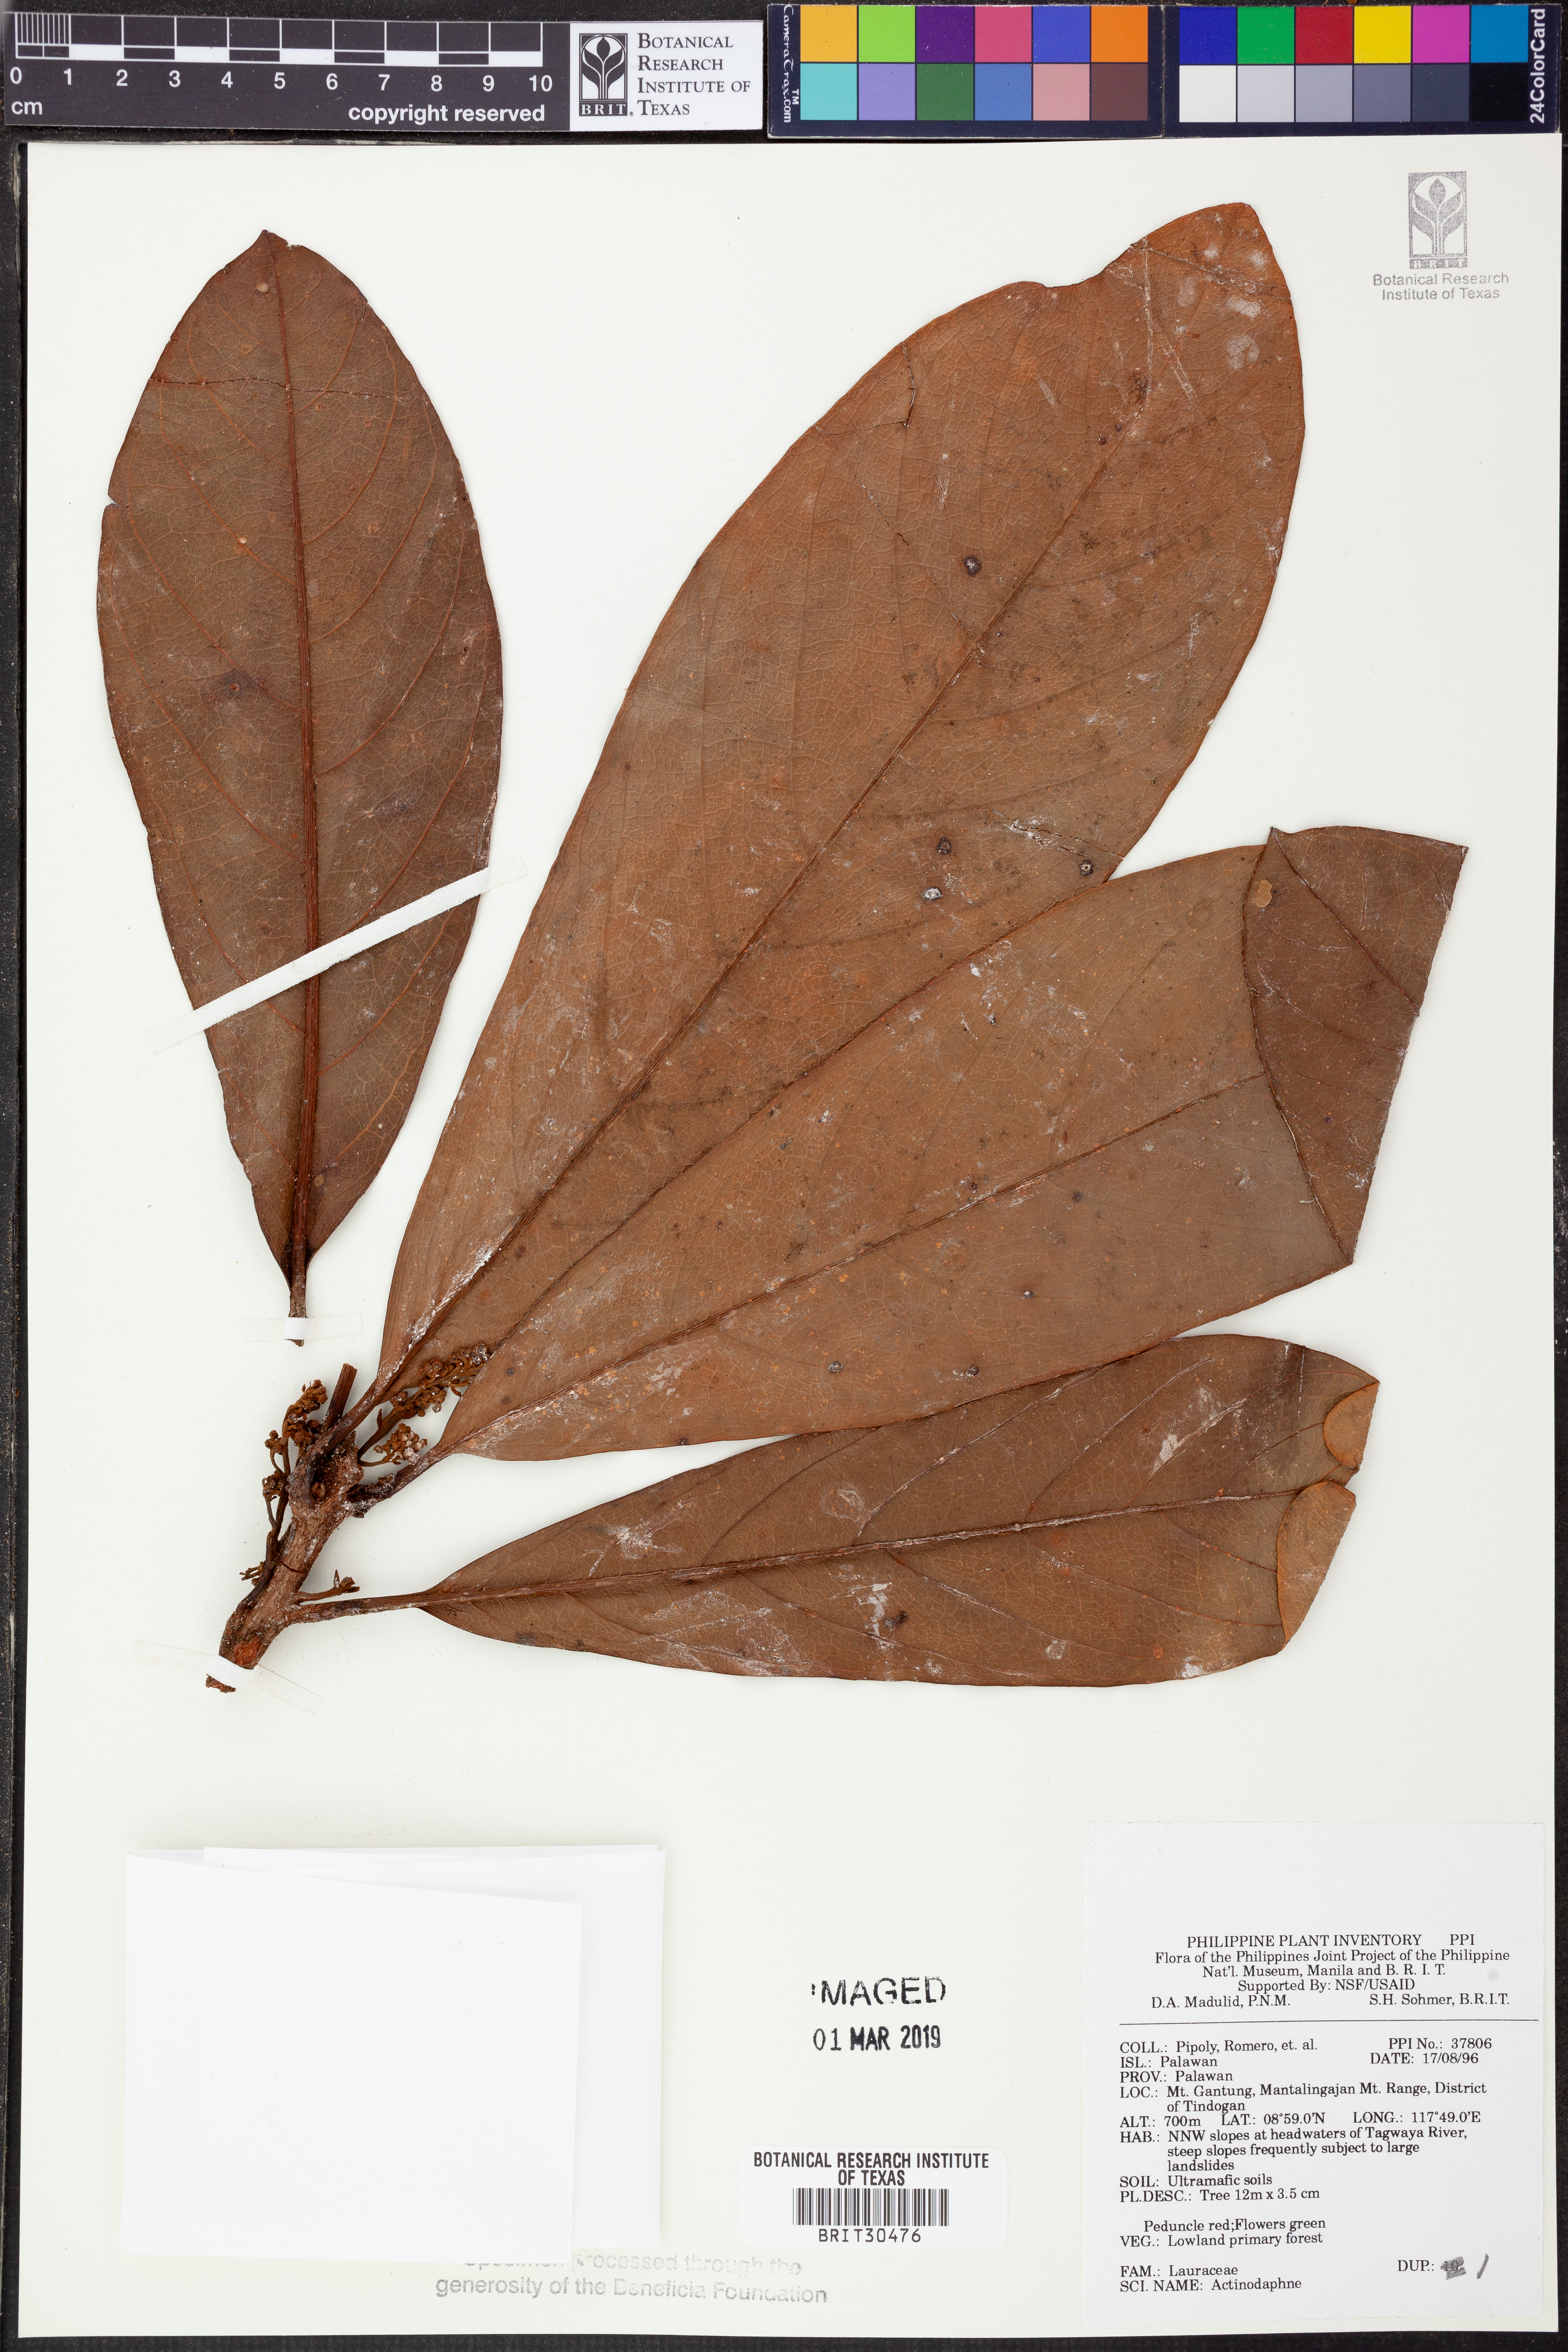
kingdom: Plantae
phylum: Tracheophyta
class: Magnoliopsida
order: Laurales
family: Lauraceae
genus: Actinodaphne
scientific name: Actinodaphne
